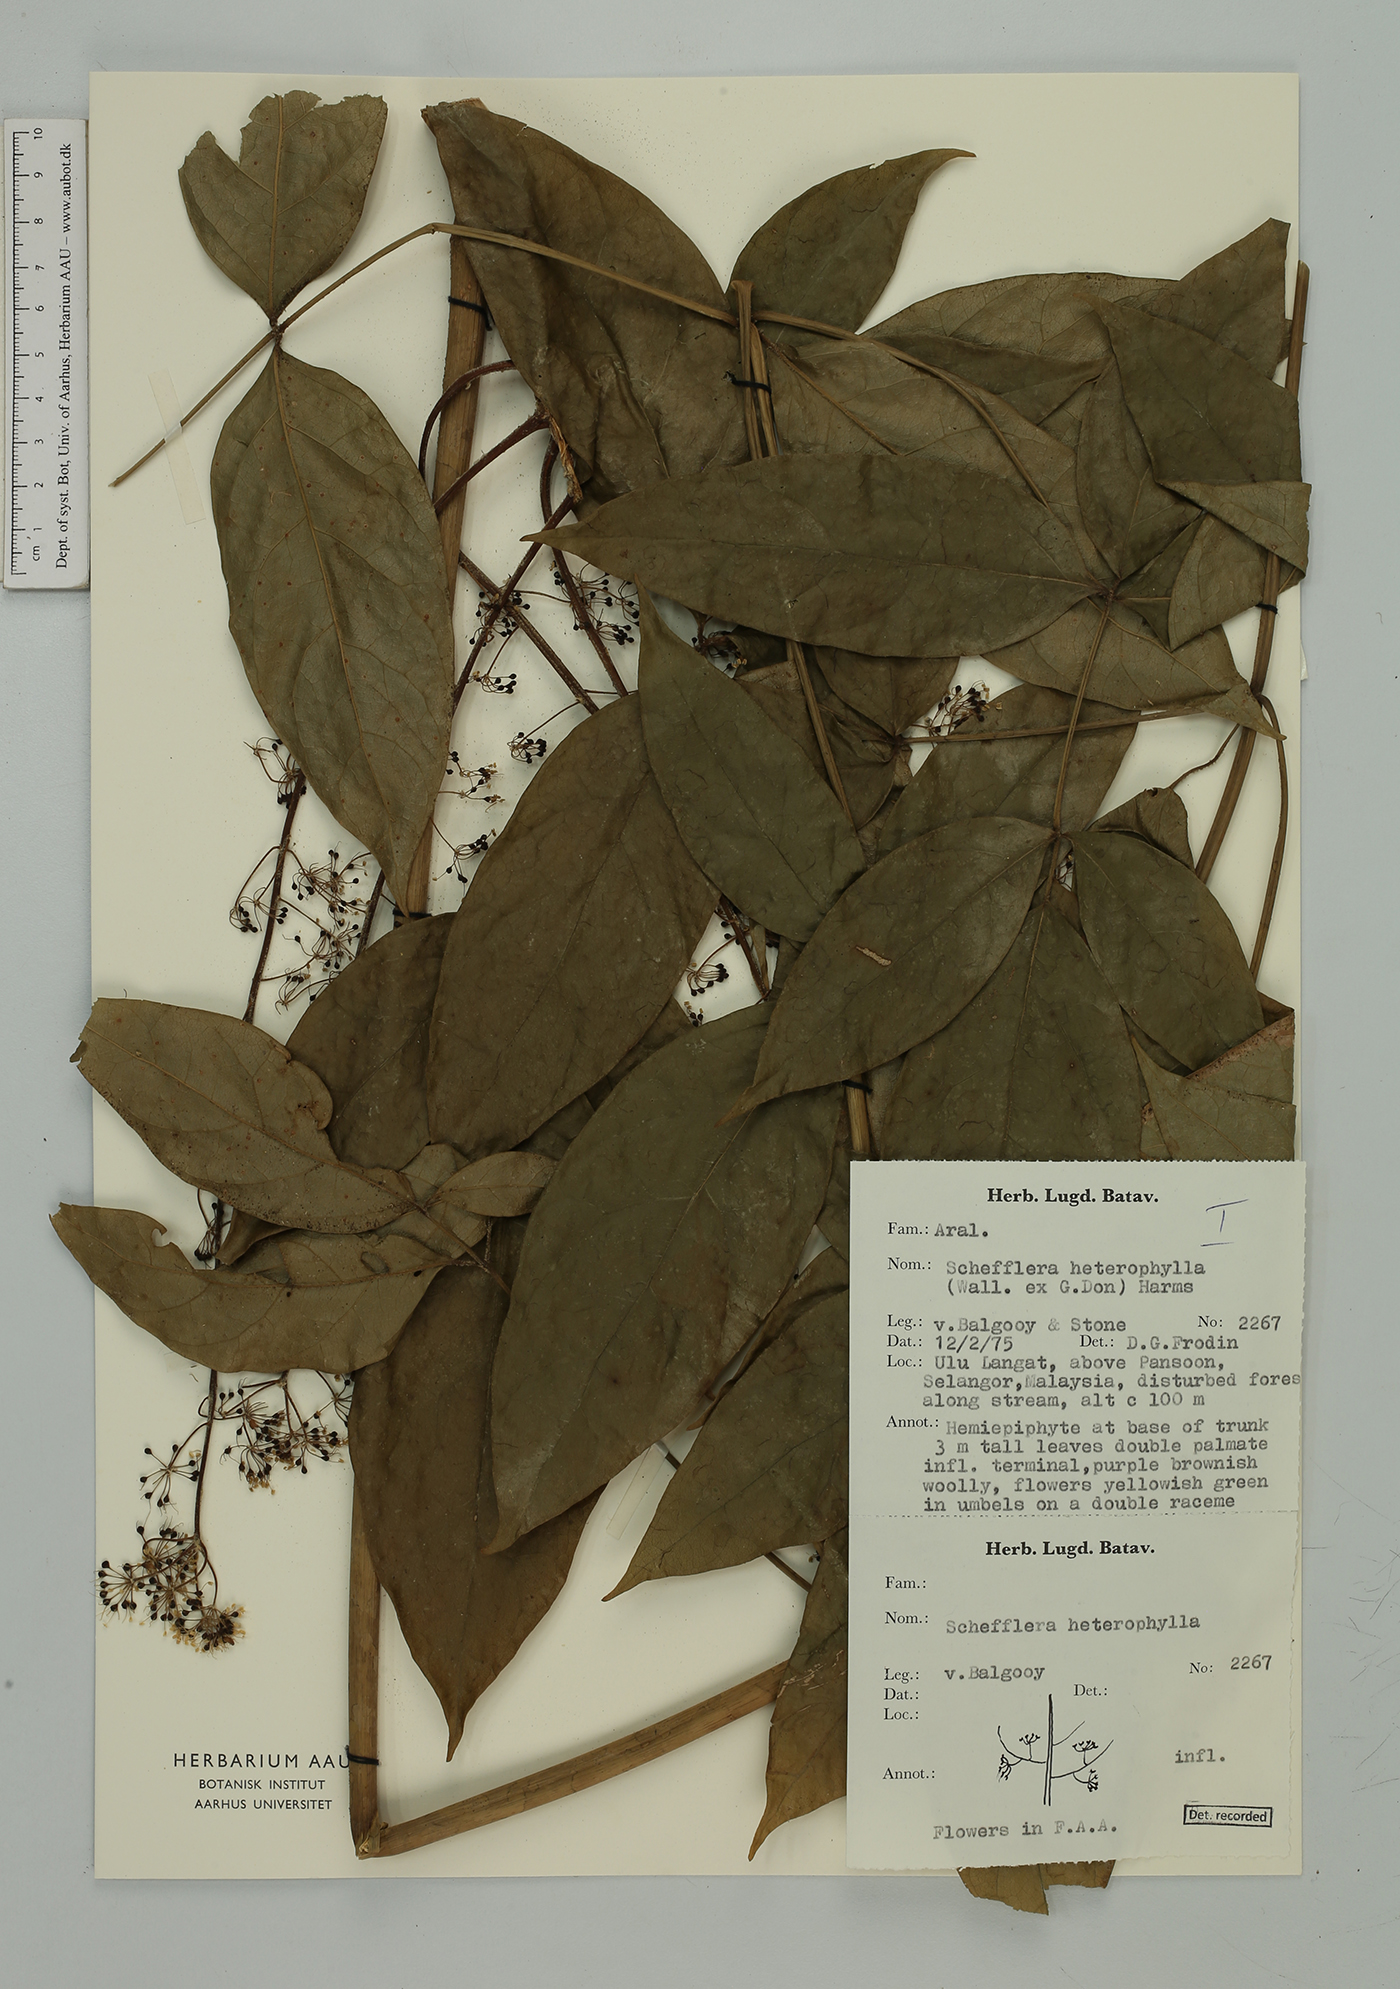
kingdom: Plantae
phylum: Tracheophyta
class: Magnoliopsida
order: Apiales
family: Araliaceae
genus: Heptapleurum
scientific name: Heptapleurum heterophyllum
